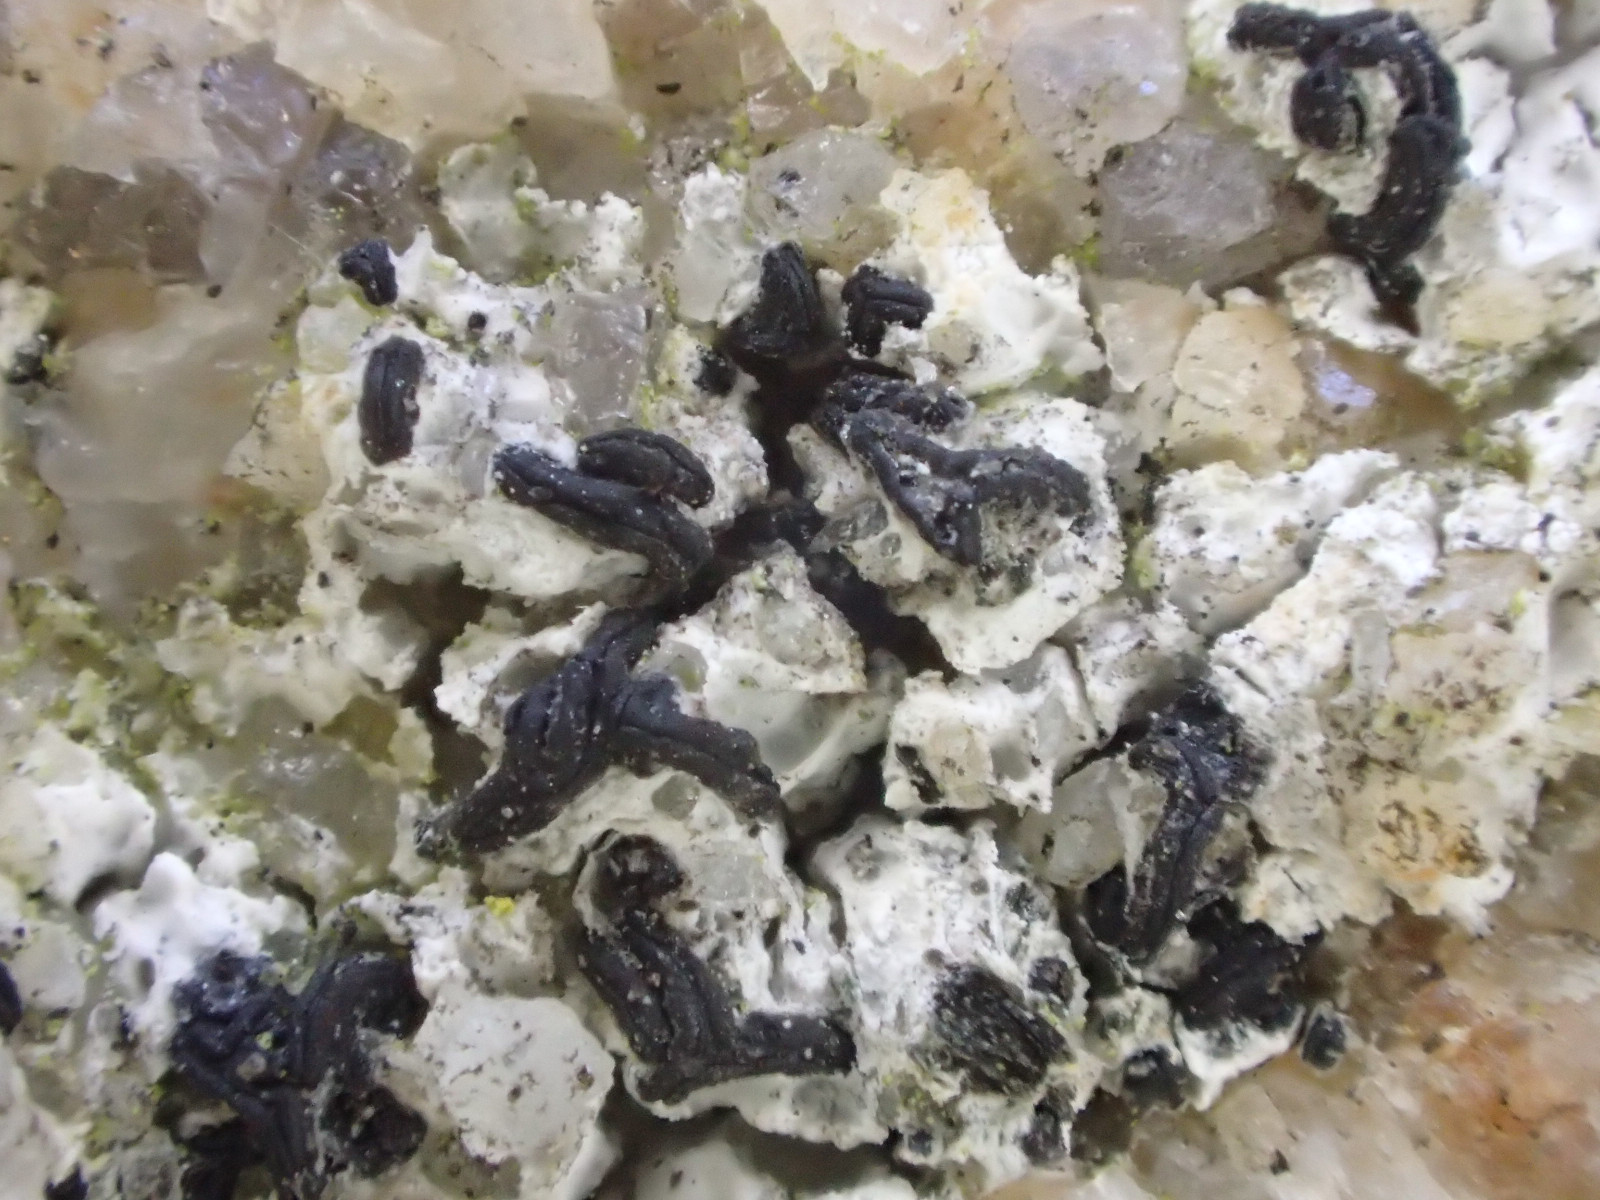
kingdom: Fungi
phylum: Ascomycota
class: Arthoniomycetes
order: Arthoniales
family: Arthoniaceae
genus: Arthonia
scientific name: Arthonia calcarea
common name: kalk-bogstavlav
